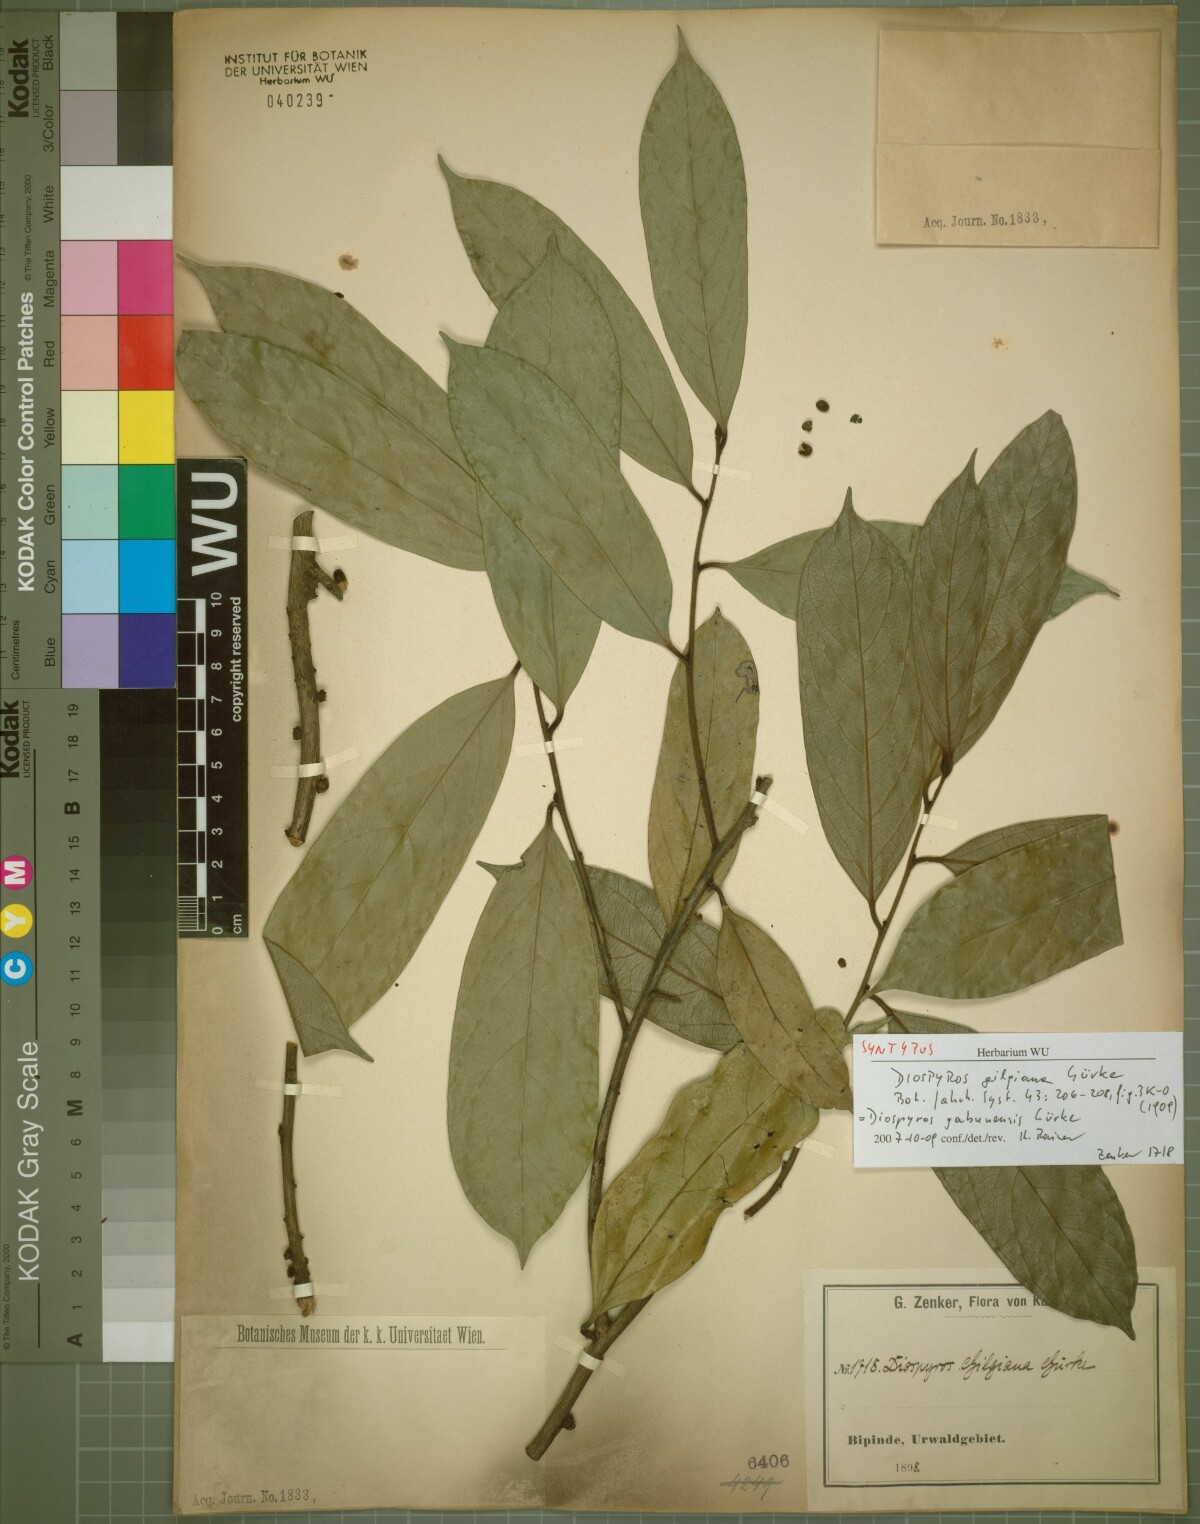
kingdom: Plantae
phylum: Tracheophyta
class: Magnoliopsida
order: Ericales
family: Ebenaceae
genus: Diospyros
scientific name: Diospyros gabunensis
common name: Flint bark tree
